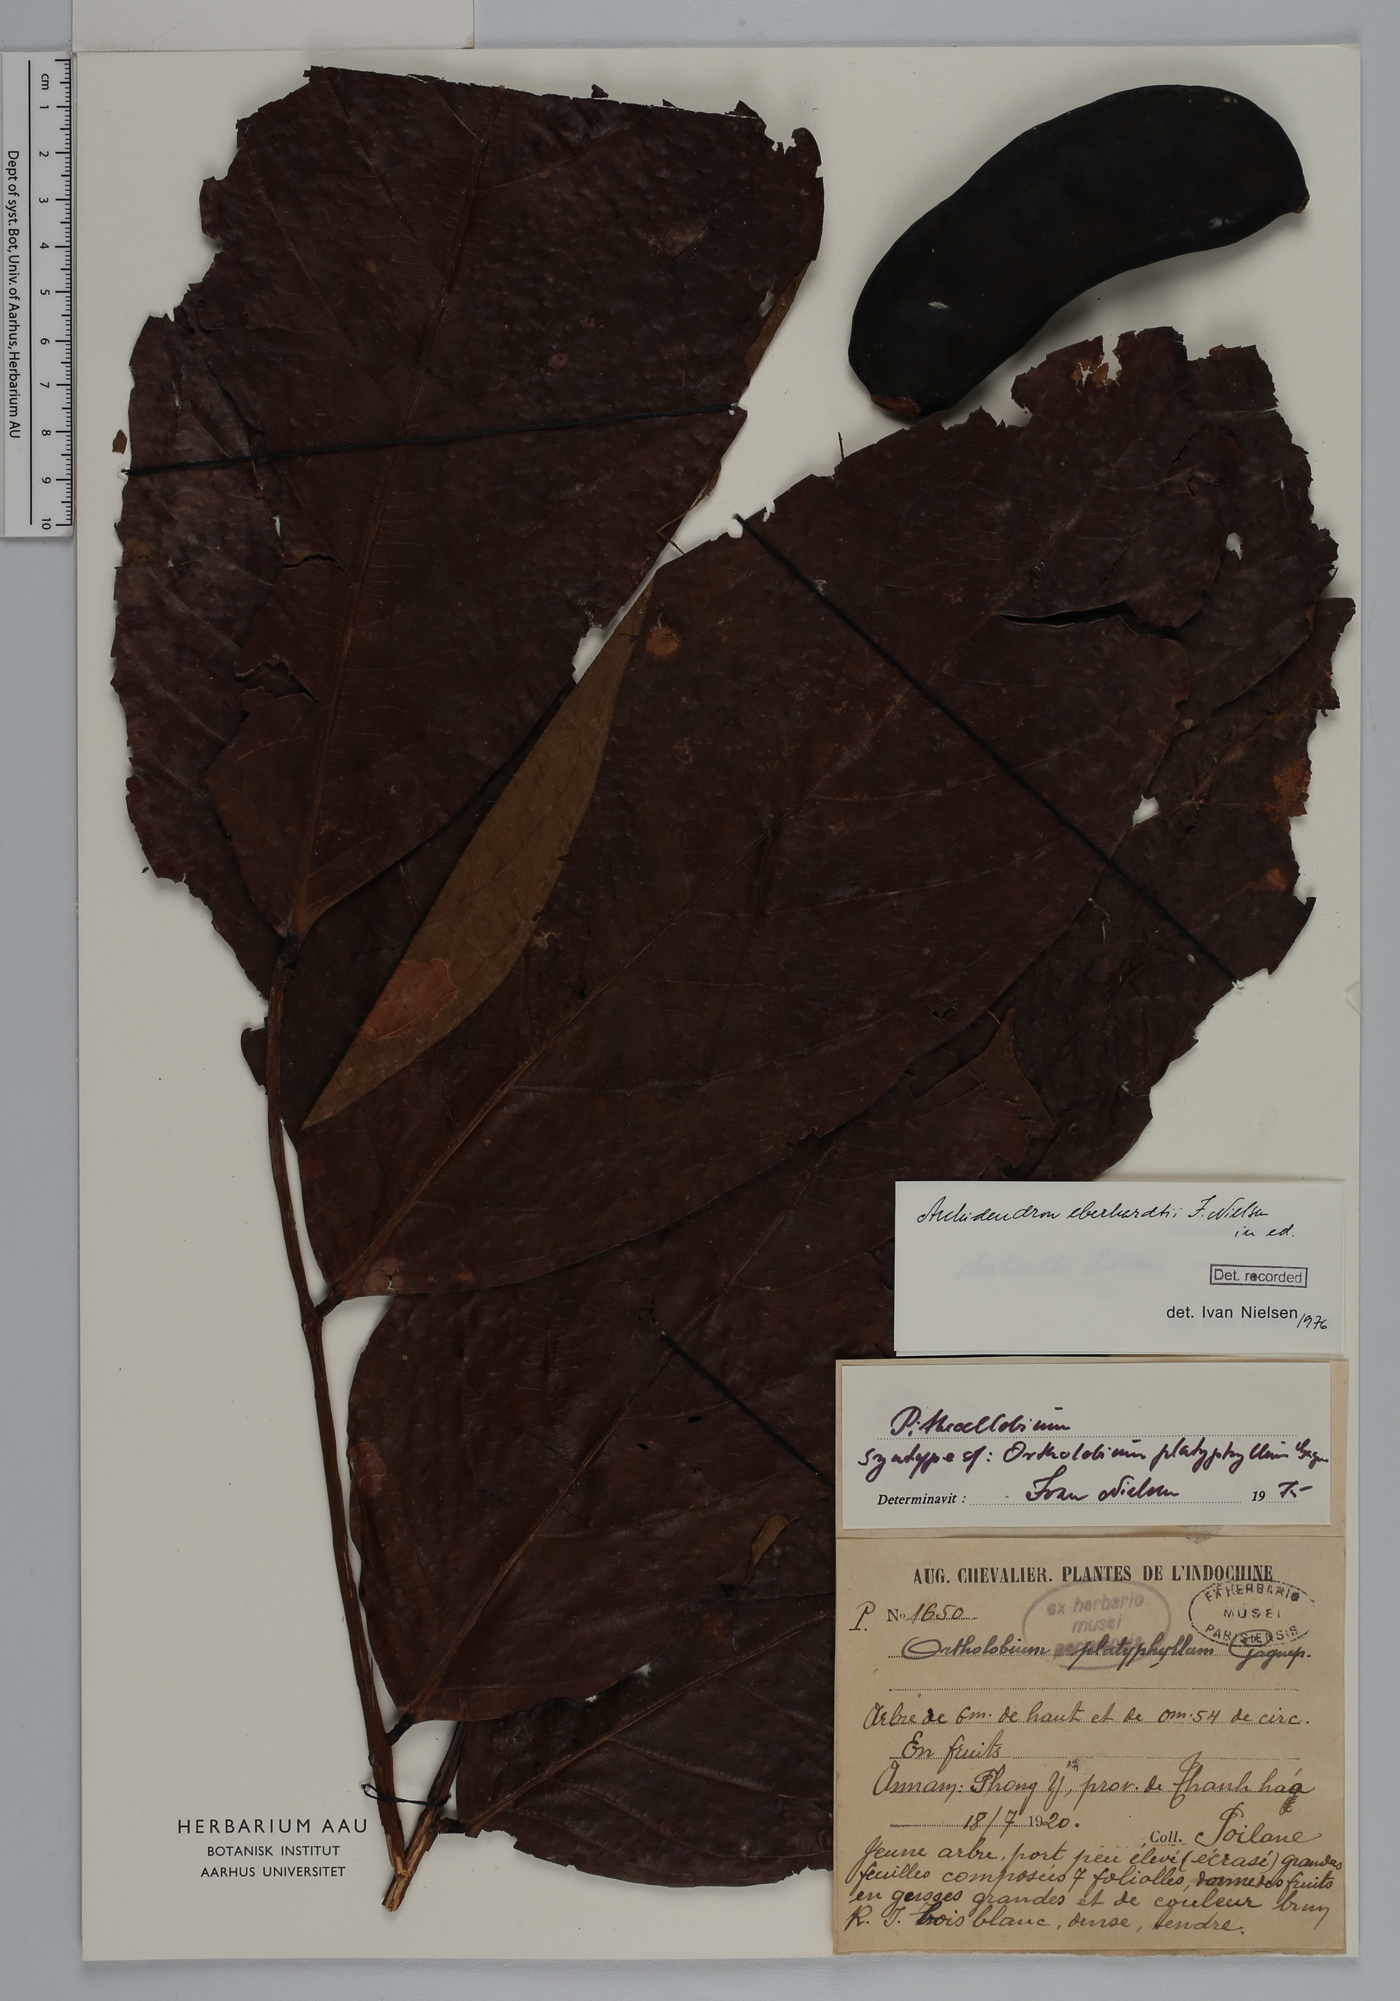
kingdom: Plantae
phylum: Tracheophyta
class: Magnoliopsida
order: Fabales
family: Fabaceae
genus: Archidendron
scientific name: Archidendron eberhardtii
